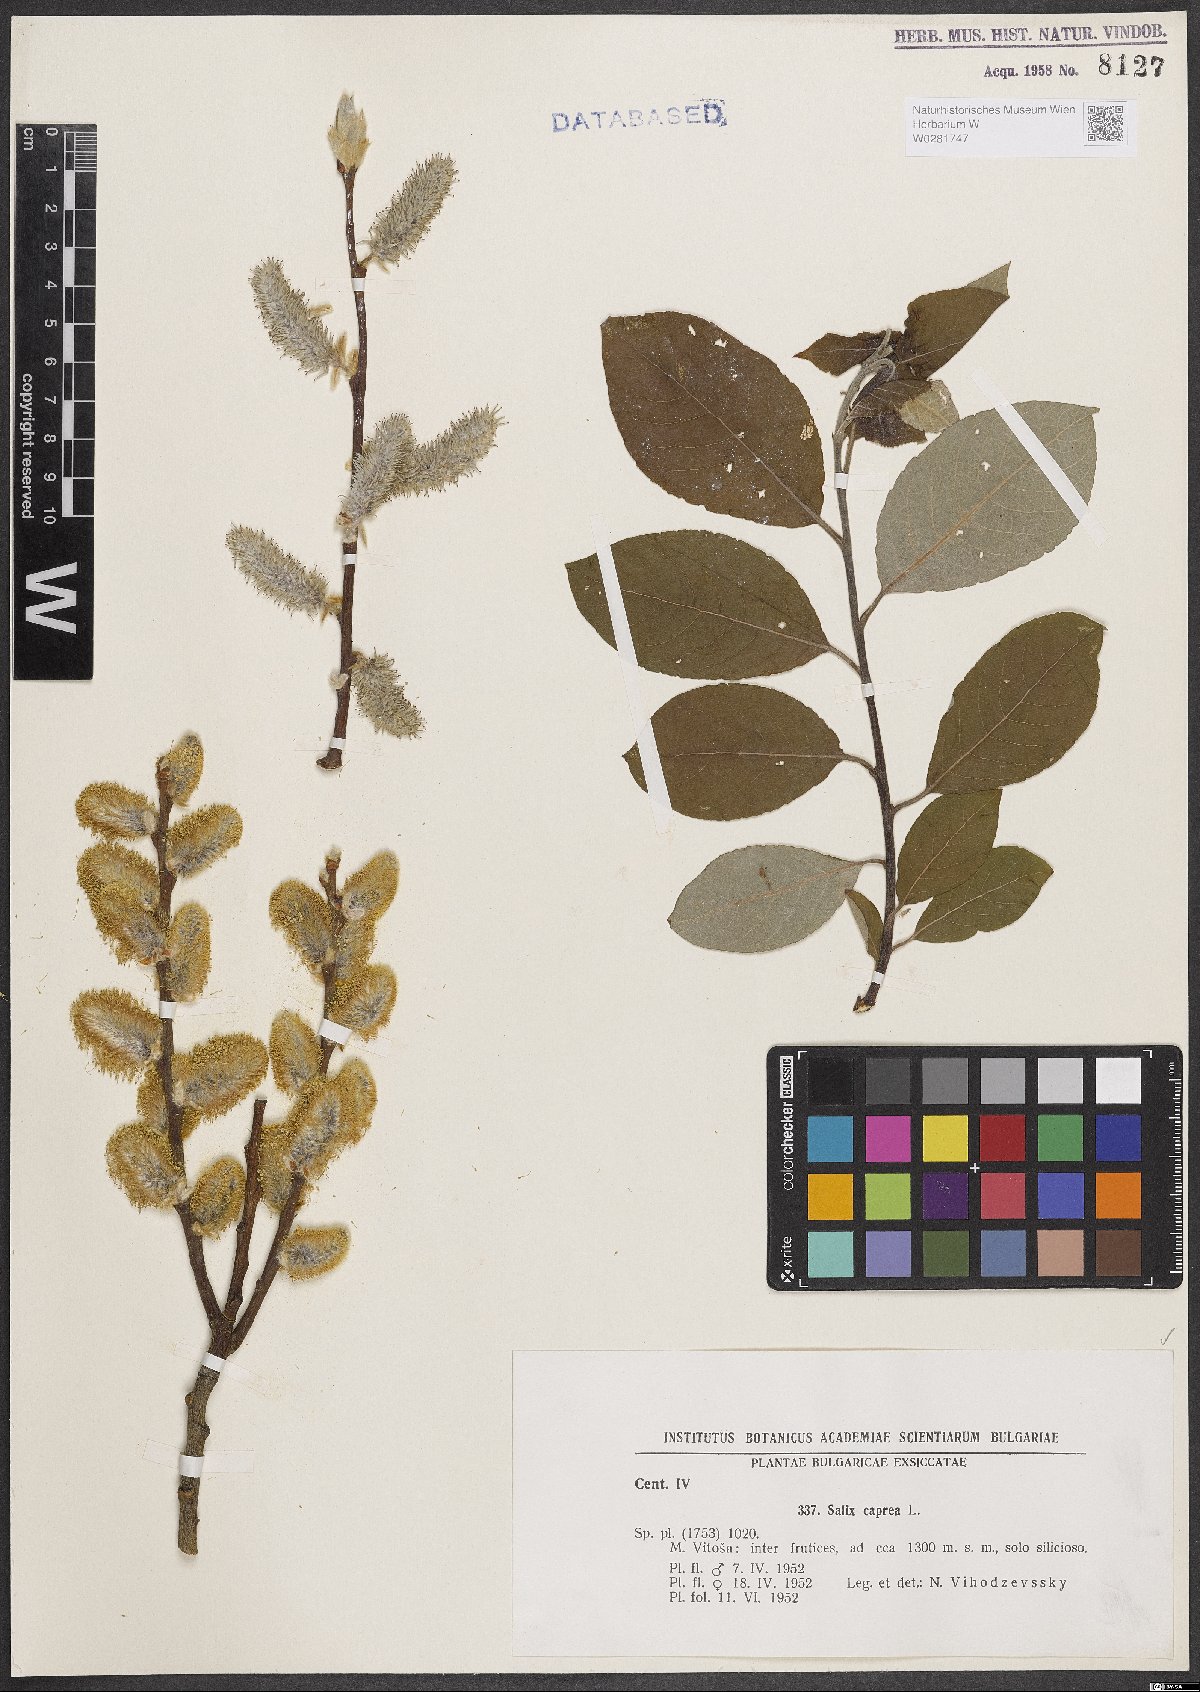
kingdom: Plantae
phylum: Tracheophyta
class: Magnoliopsida
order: Malpighiales
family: Salicaceae
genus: Salix
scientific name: Salix caprea
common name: Goat willow
